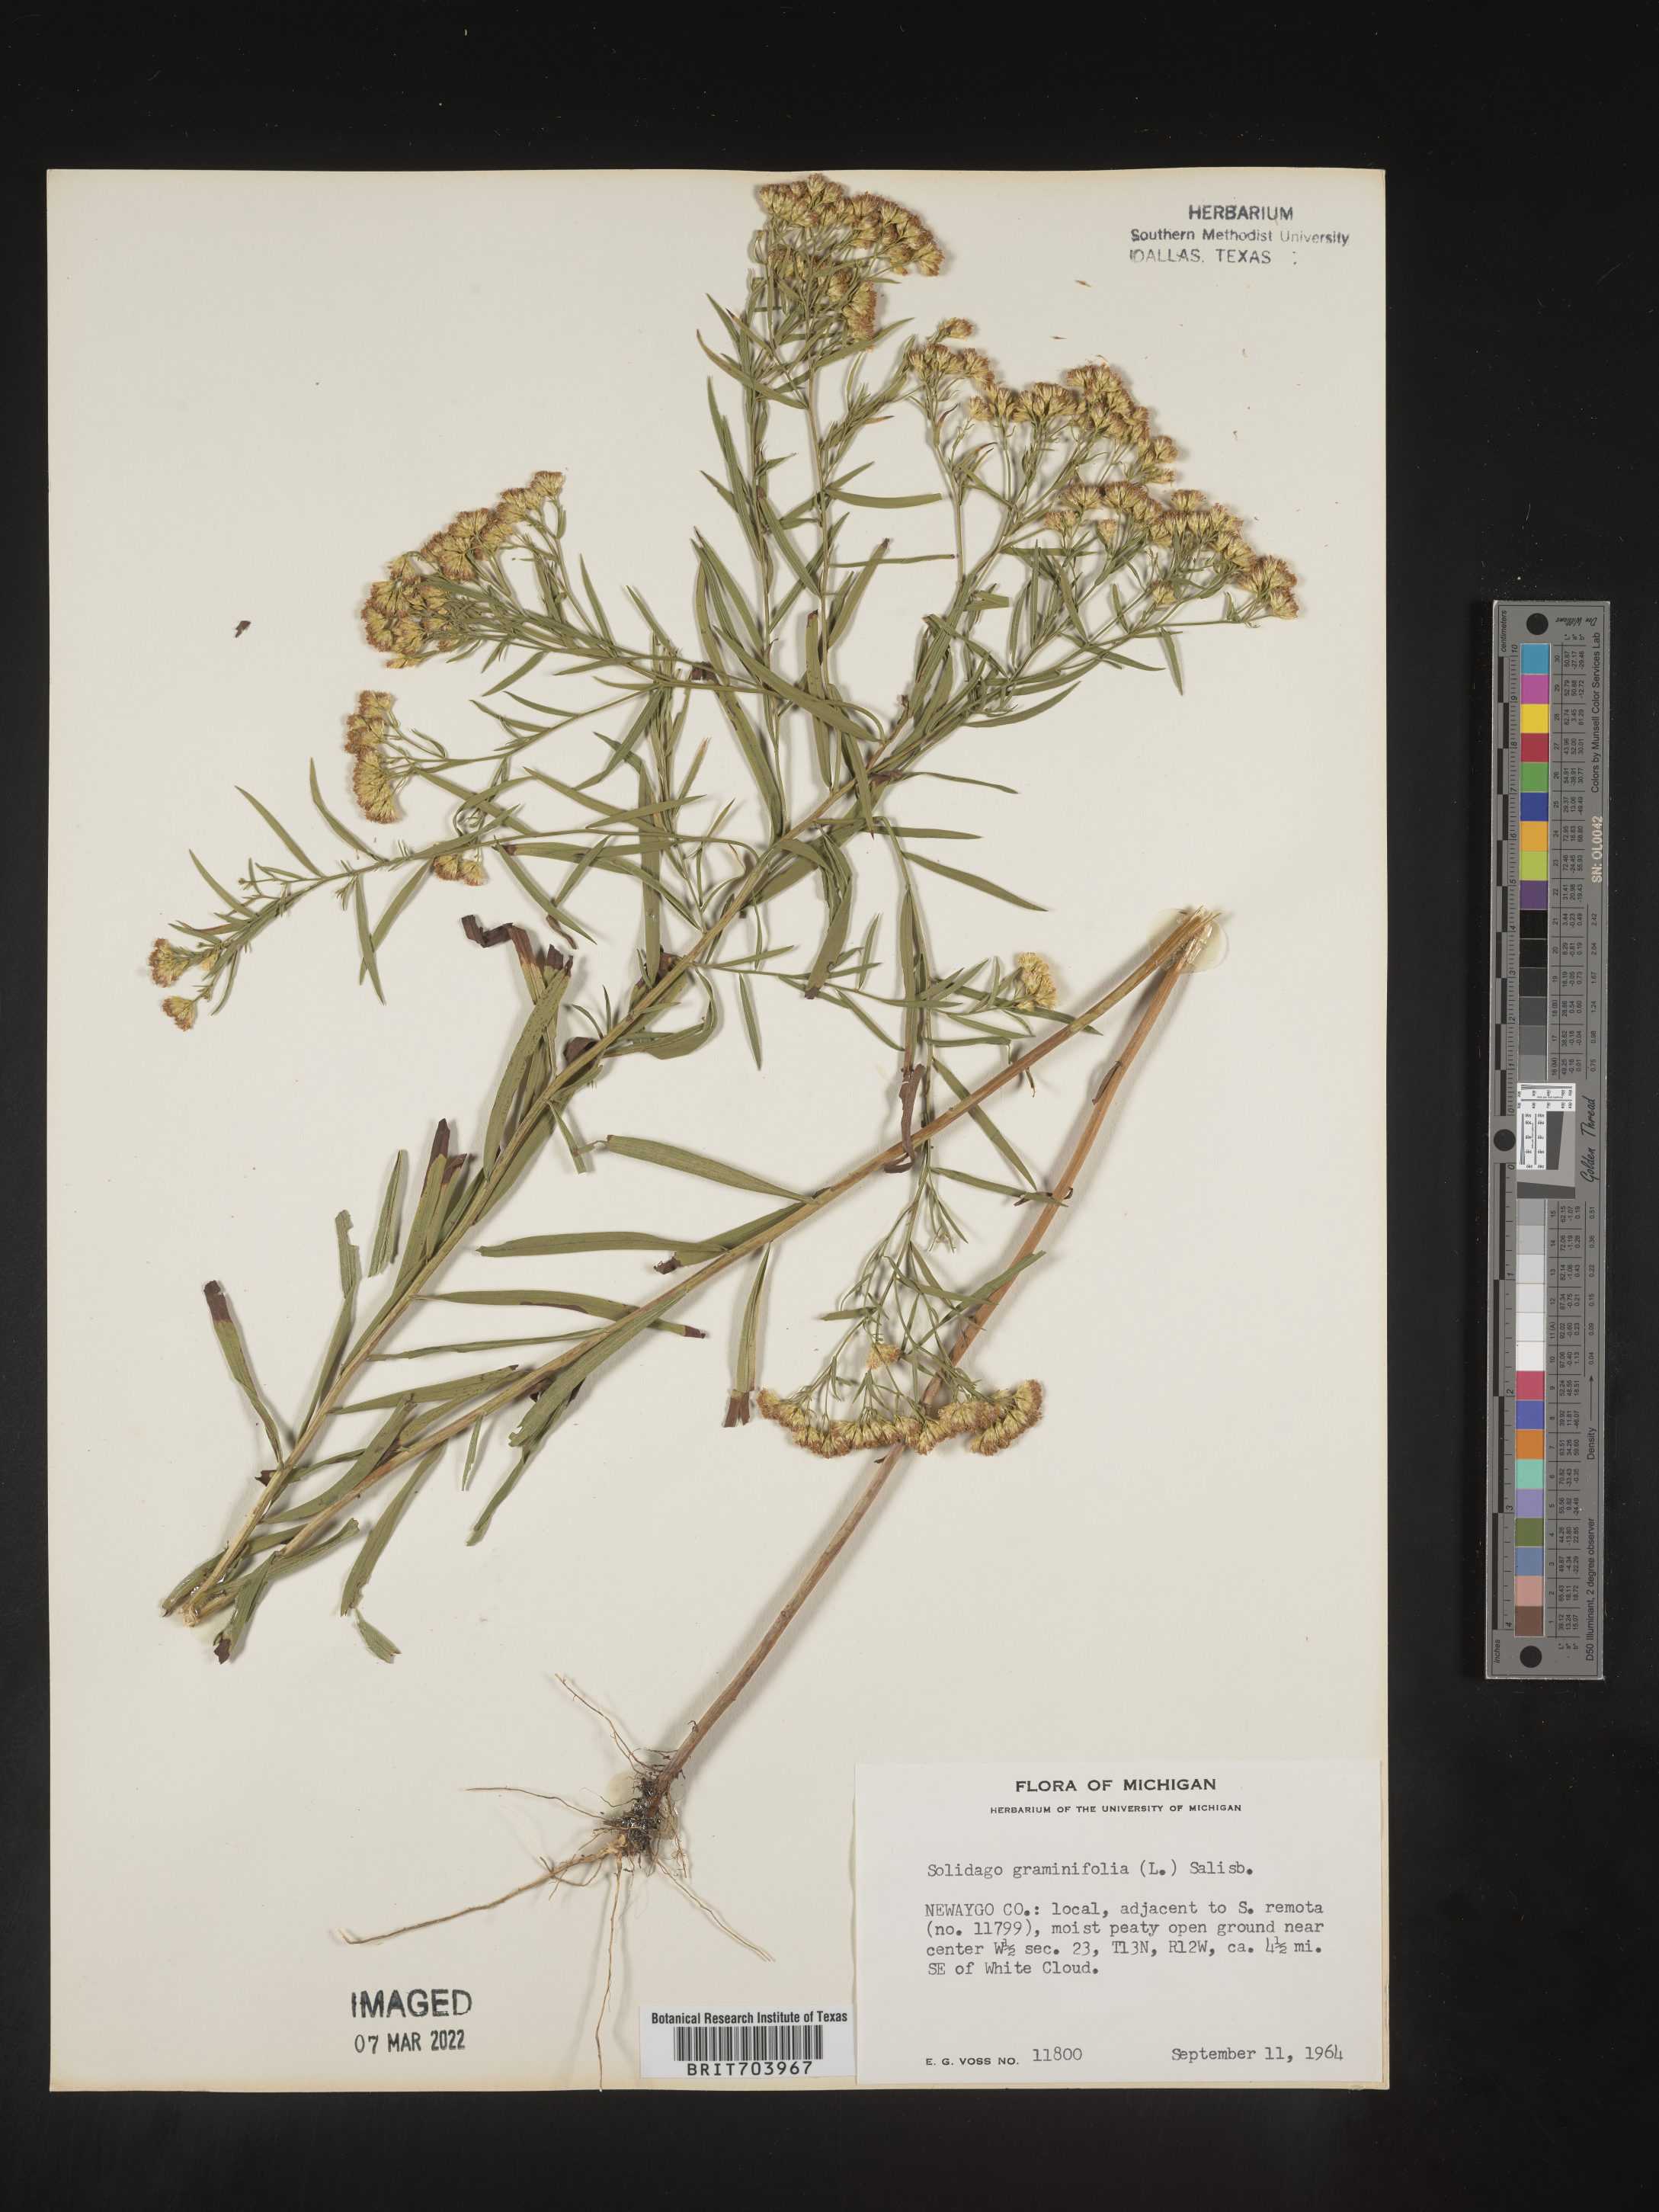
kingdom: Plantae
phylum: Tracheophyta
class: Magnoliopsida
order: Asterales
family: Asteraceae
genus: Euthamia
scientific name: Euthamia graminifolia
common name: Common goldentop
